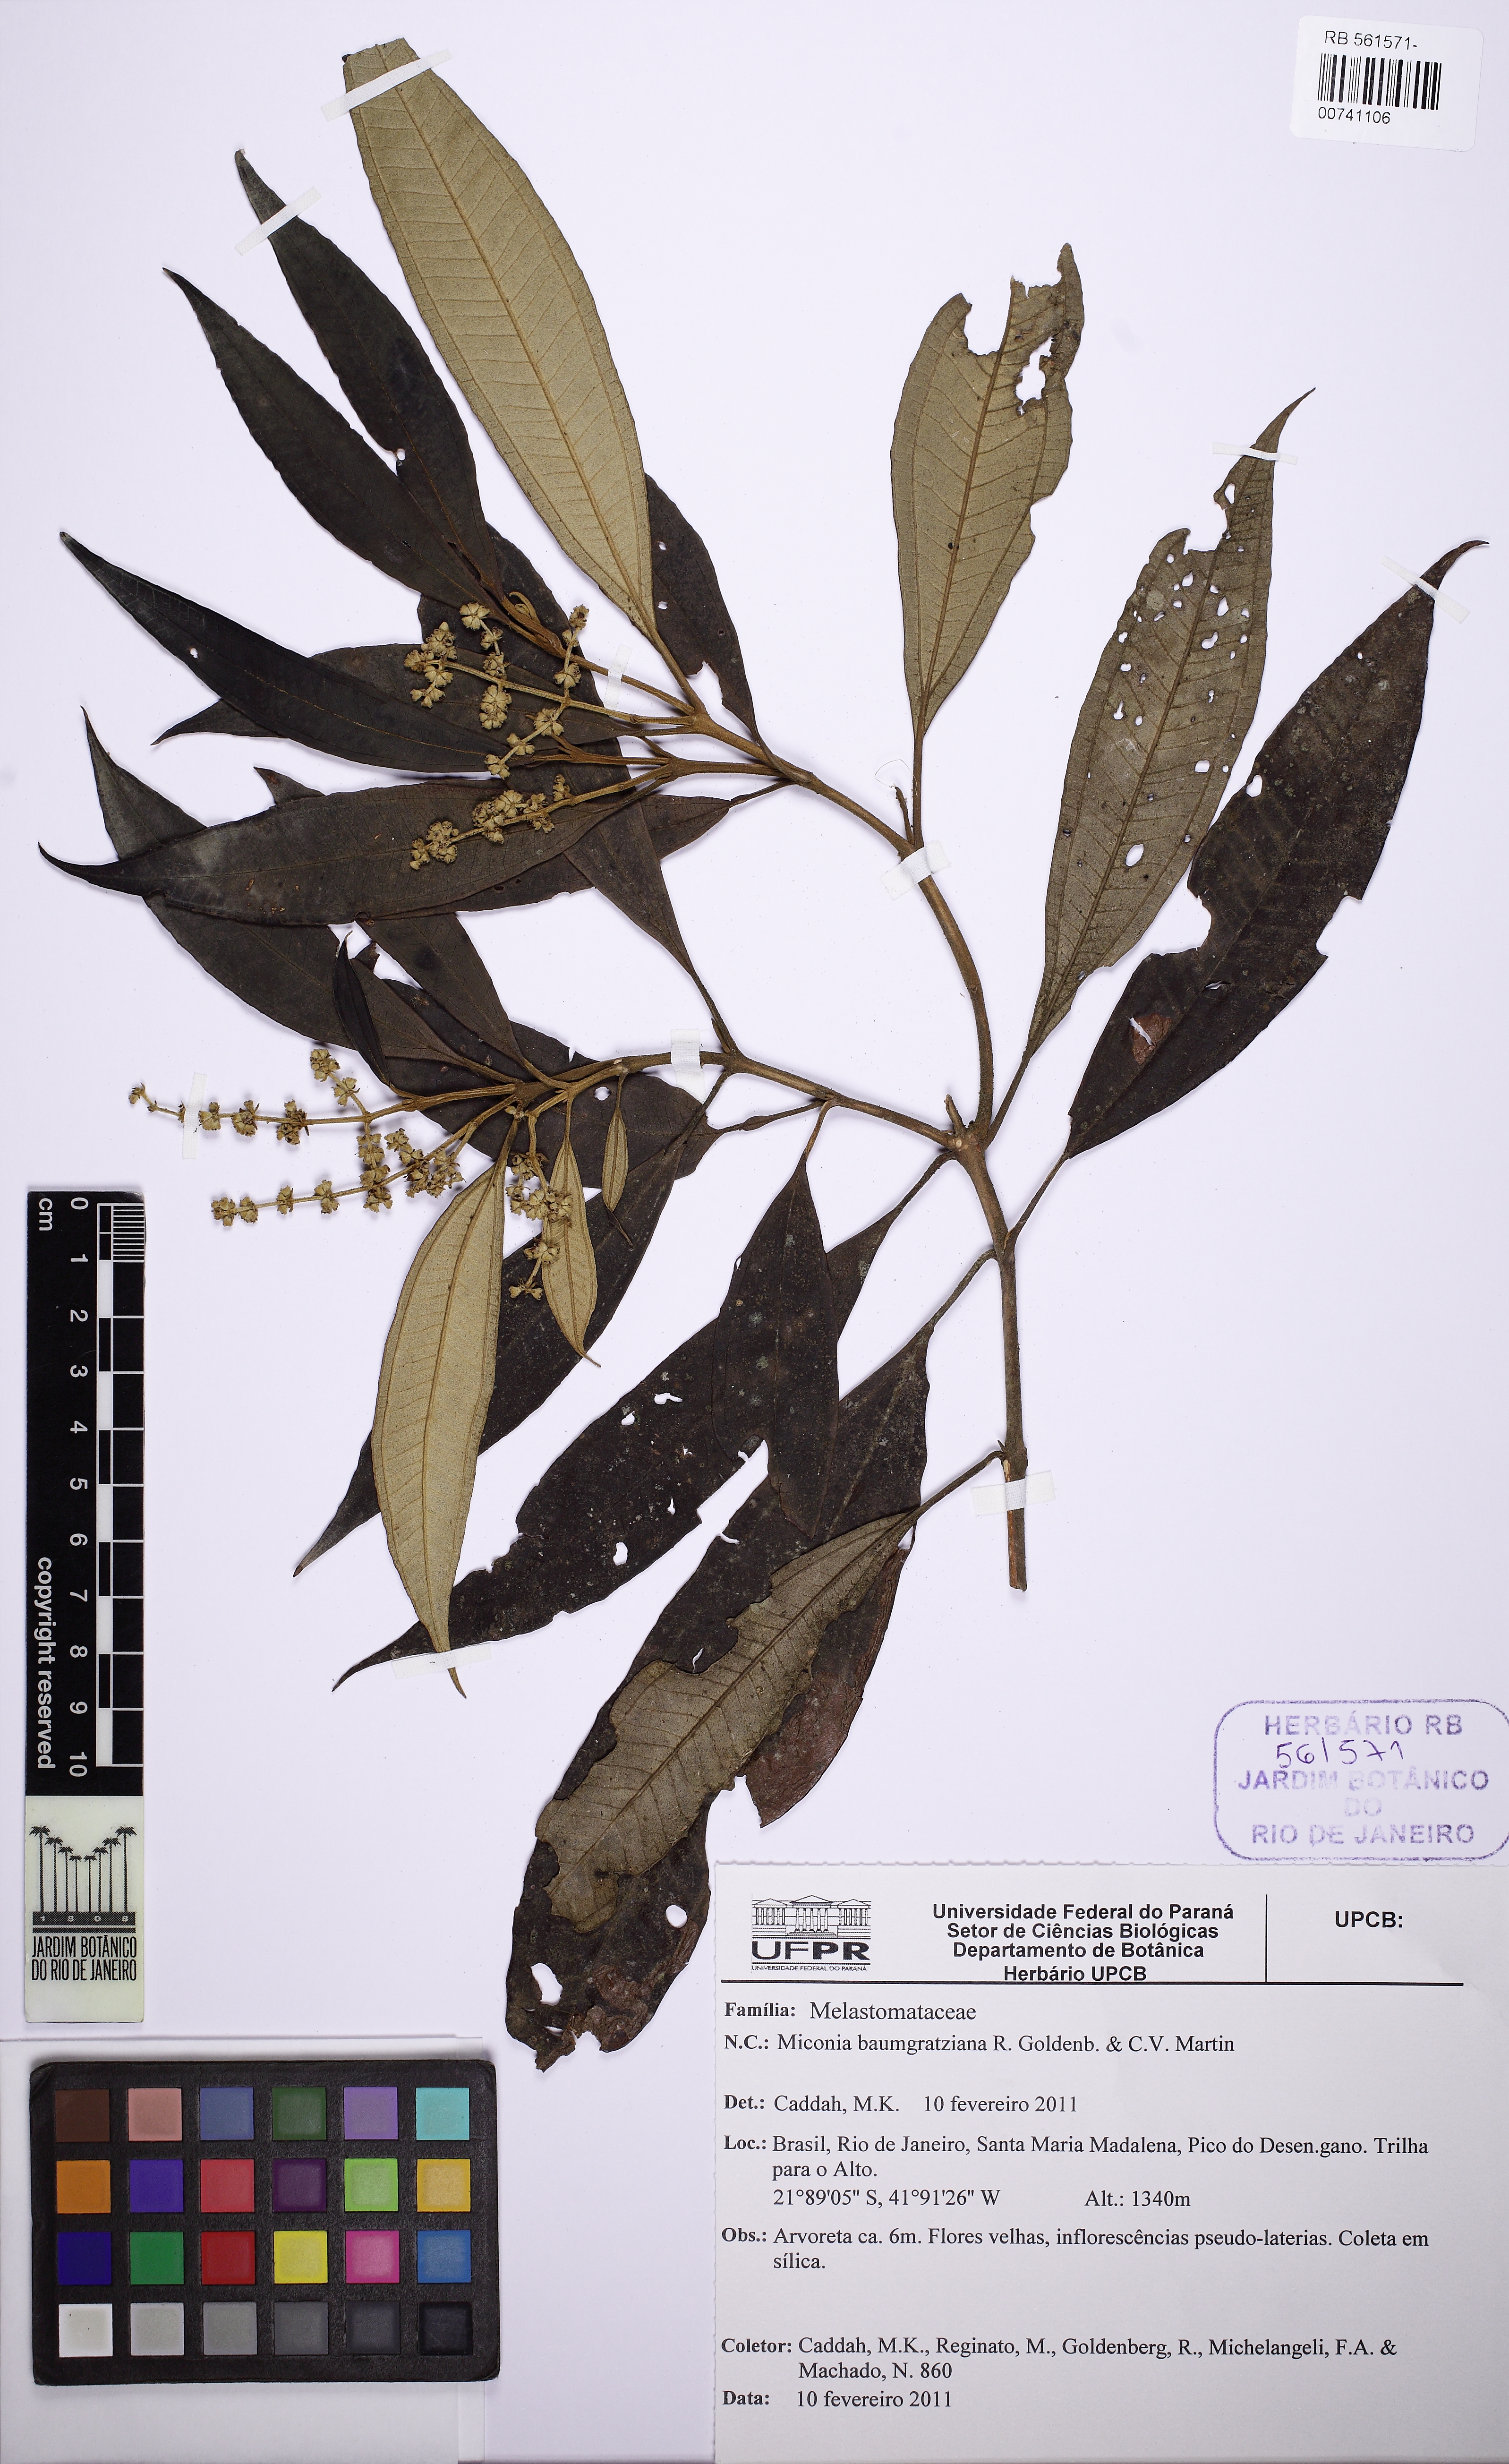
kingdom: Plantae
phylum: Tracheophyta
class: Magnoliopsida
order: Myrtales
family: Melastomataceae
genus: Miconia
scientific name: Miconia baumgratziana
